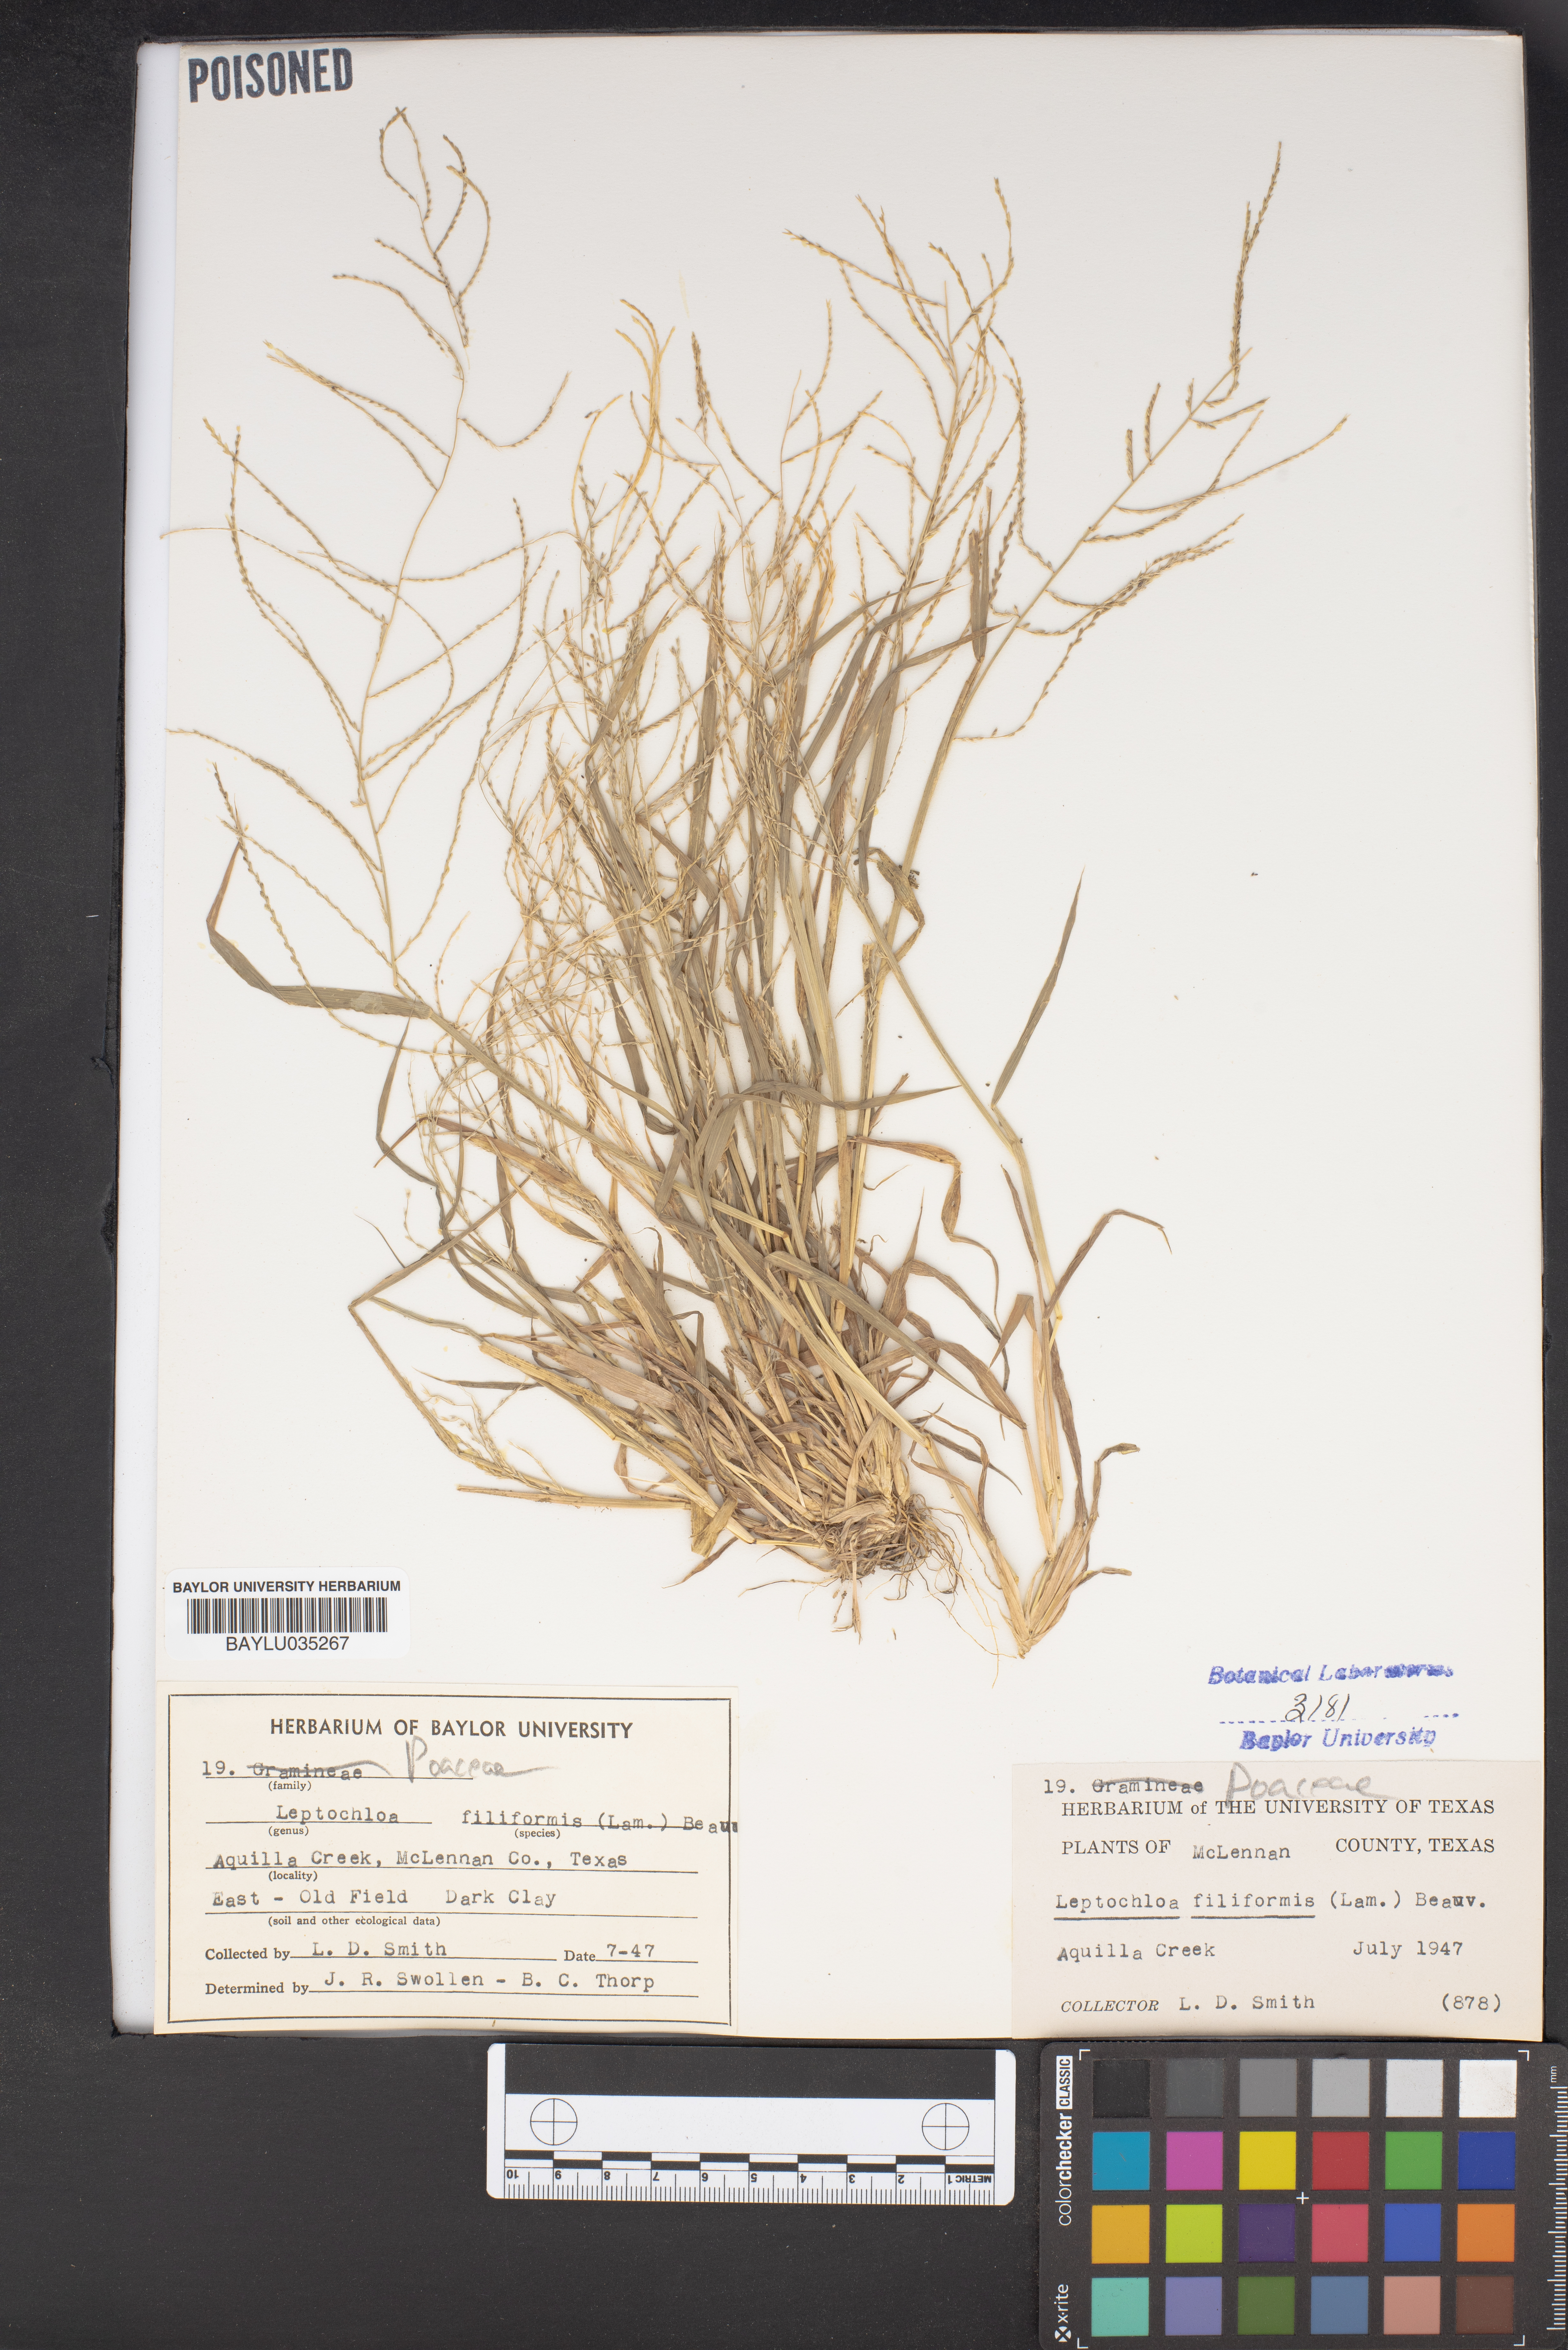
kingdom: Plantae
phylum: Tracheophyta
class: Liliopsida
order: Poales
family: Poaceae
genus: Leptochloa
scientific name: Leptochloa mucronata
